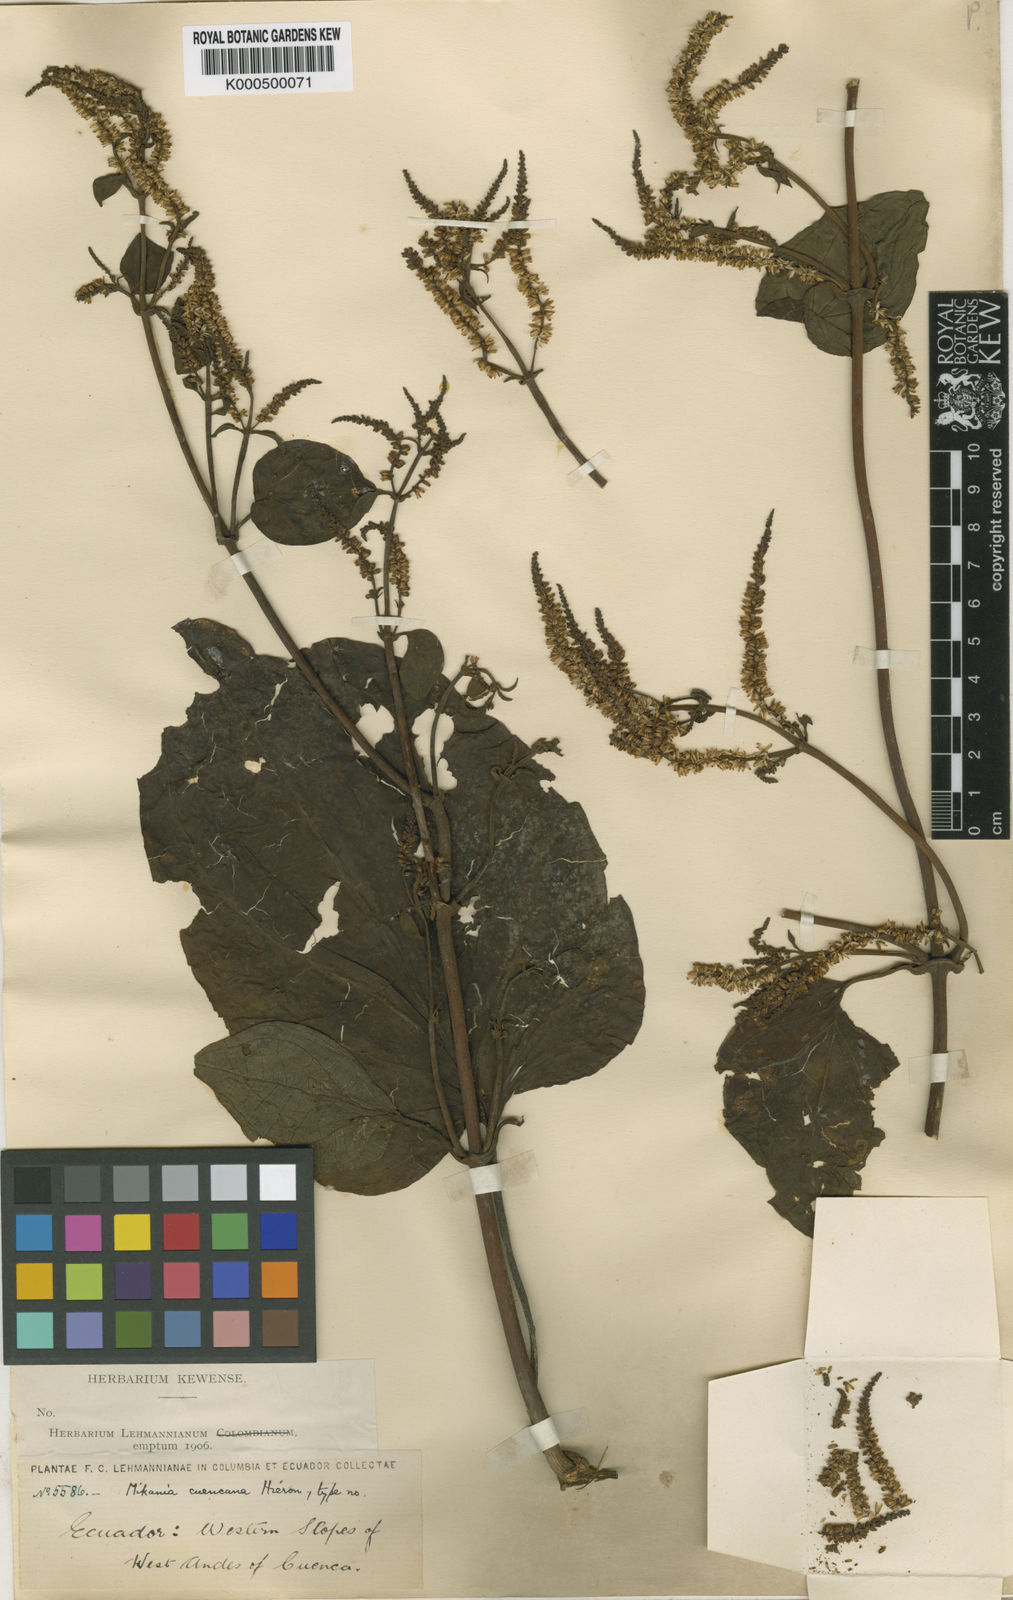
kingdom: Plantae
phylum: Tracheophyta
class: Magnoliopsida
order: Asterales
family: Asteraceae
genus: Mikania
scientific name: Mikania cuencana
